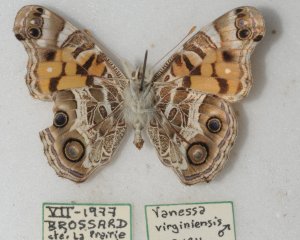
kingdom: Animalia
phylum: Arthropoda
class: Insecta
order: Lepidoptera
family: Nymphalidae
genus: Vanessa
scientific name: Vanessa virginiensis
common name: American Lady
